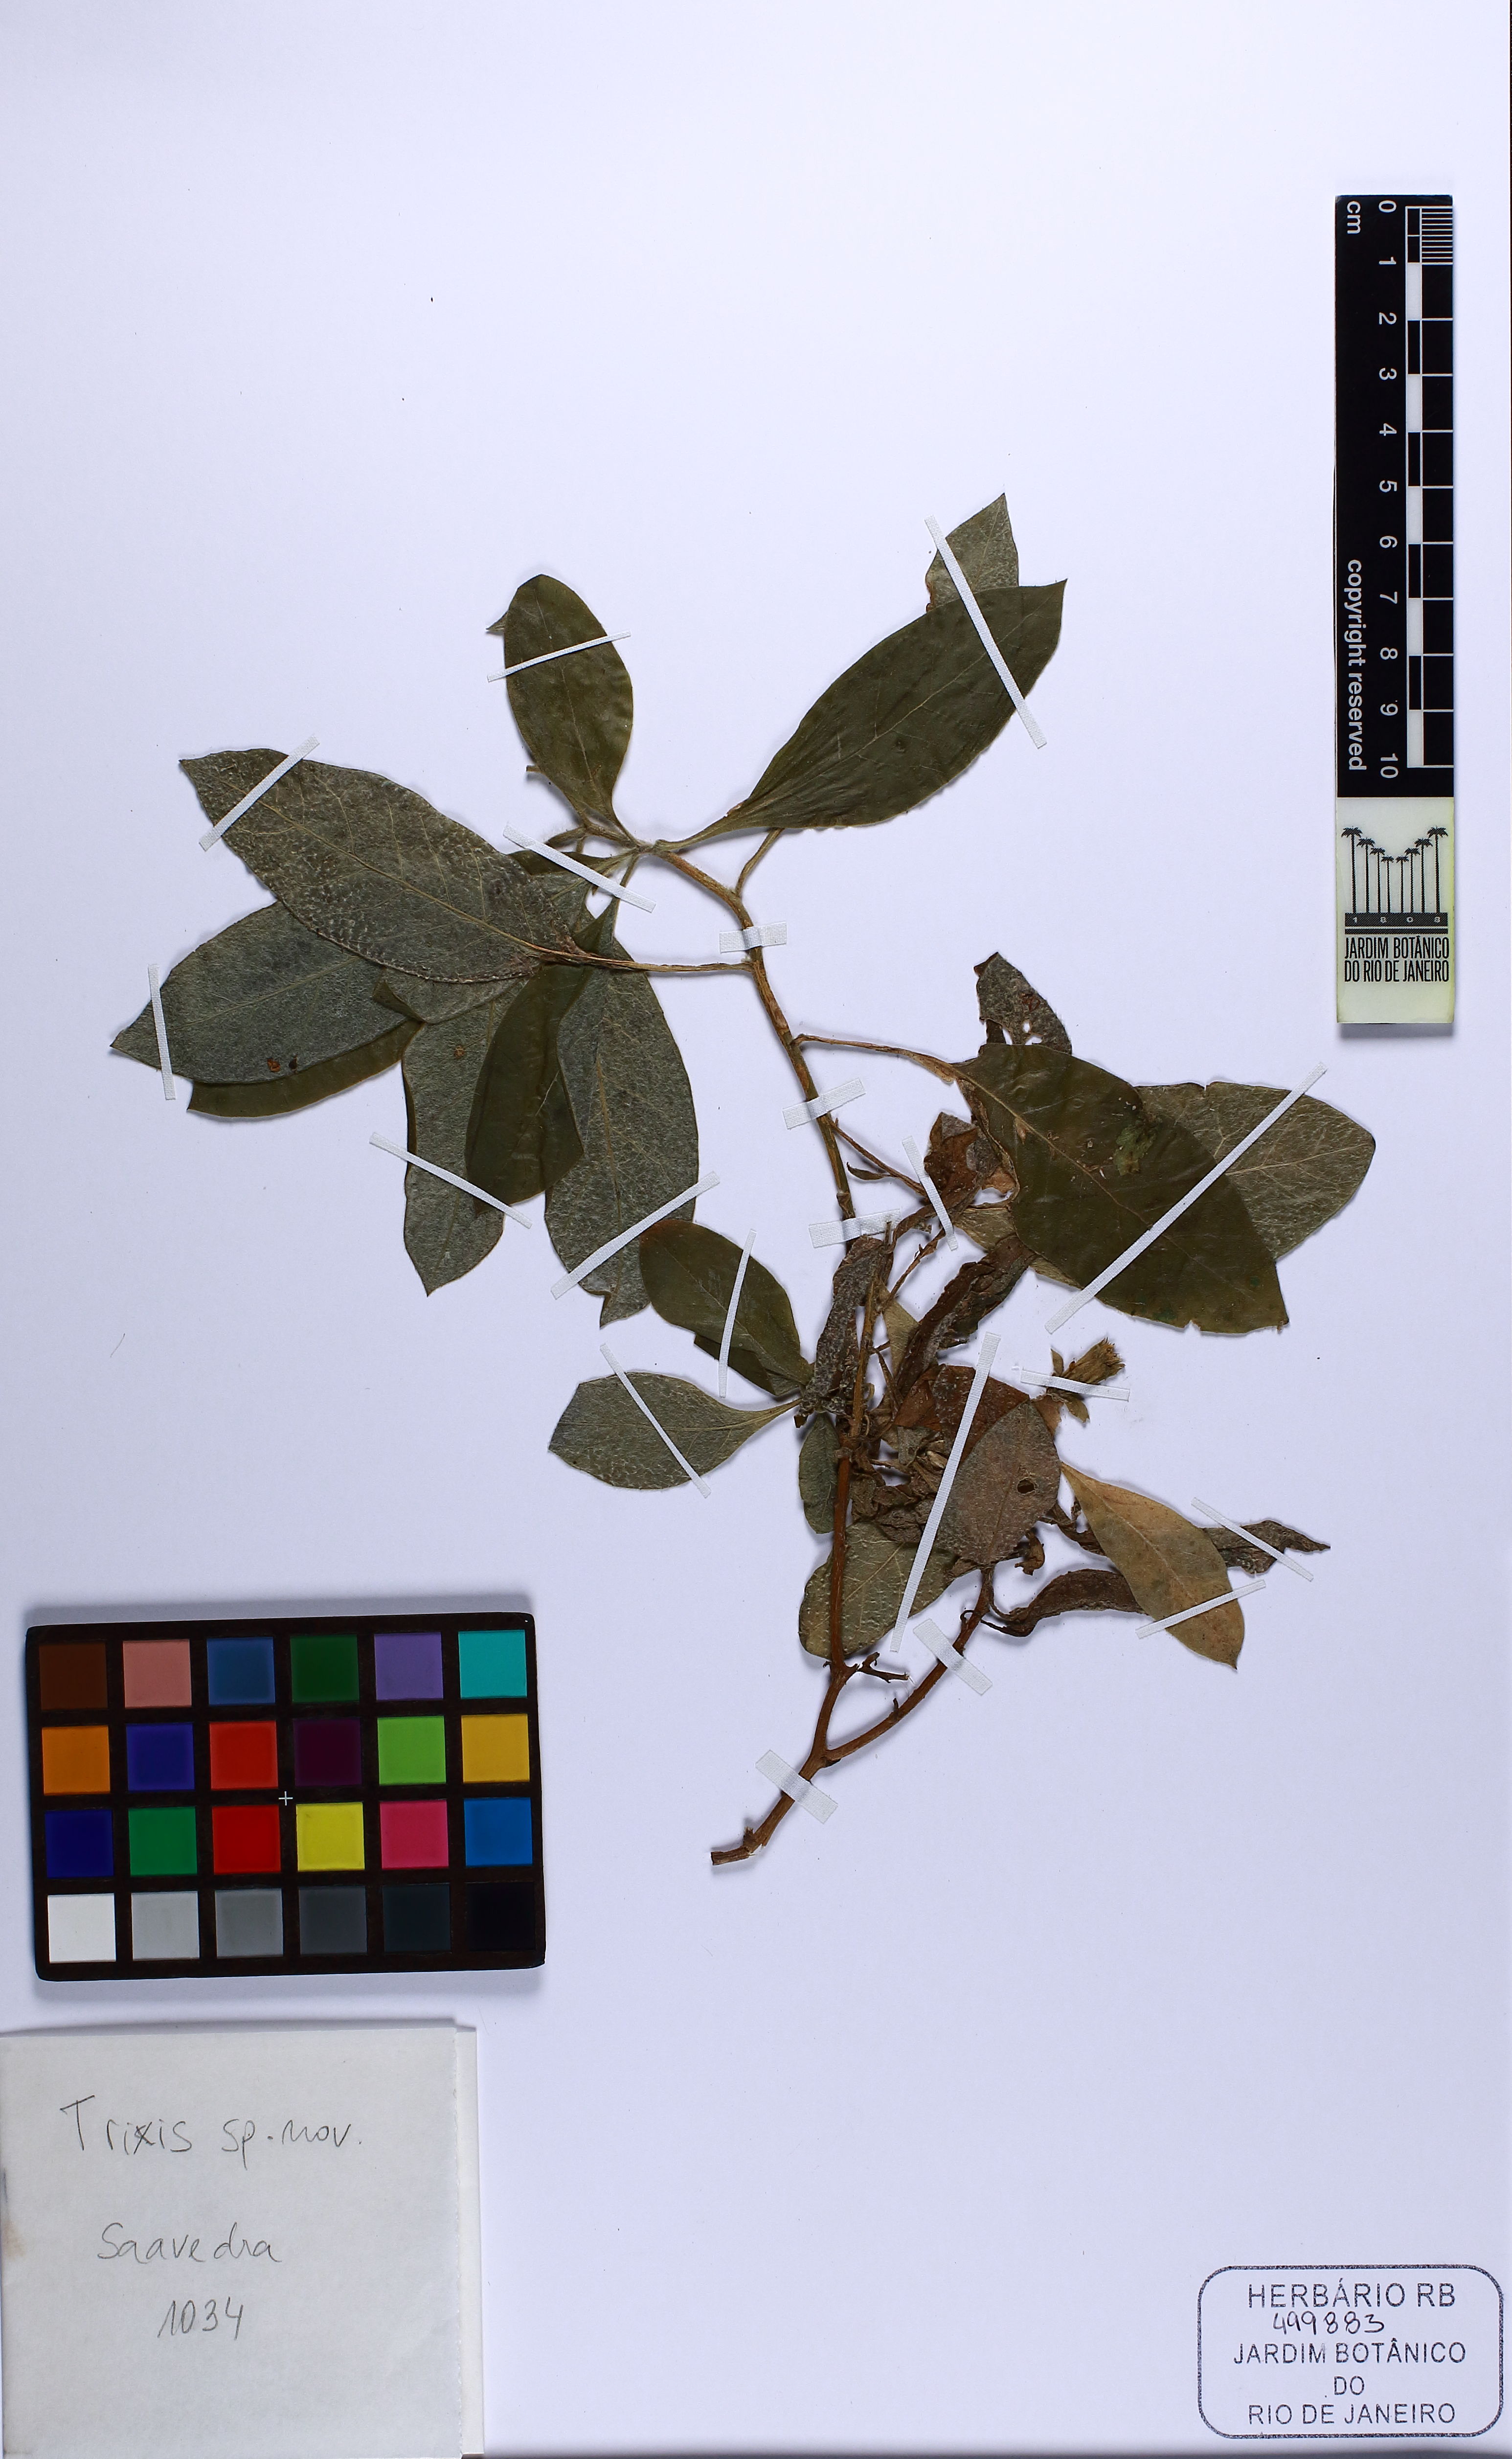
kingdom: Plantae
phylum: Tracheophyta
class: Magnoliopsida
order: Asterales
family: Asteraceae
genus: Trixis
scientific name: Trixis divaricata
